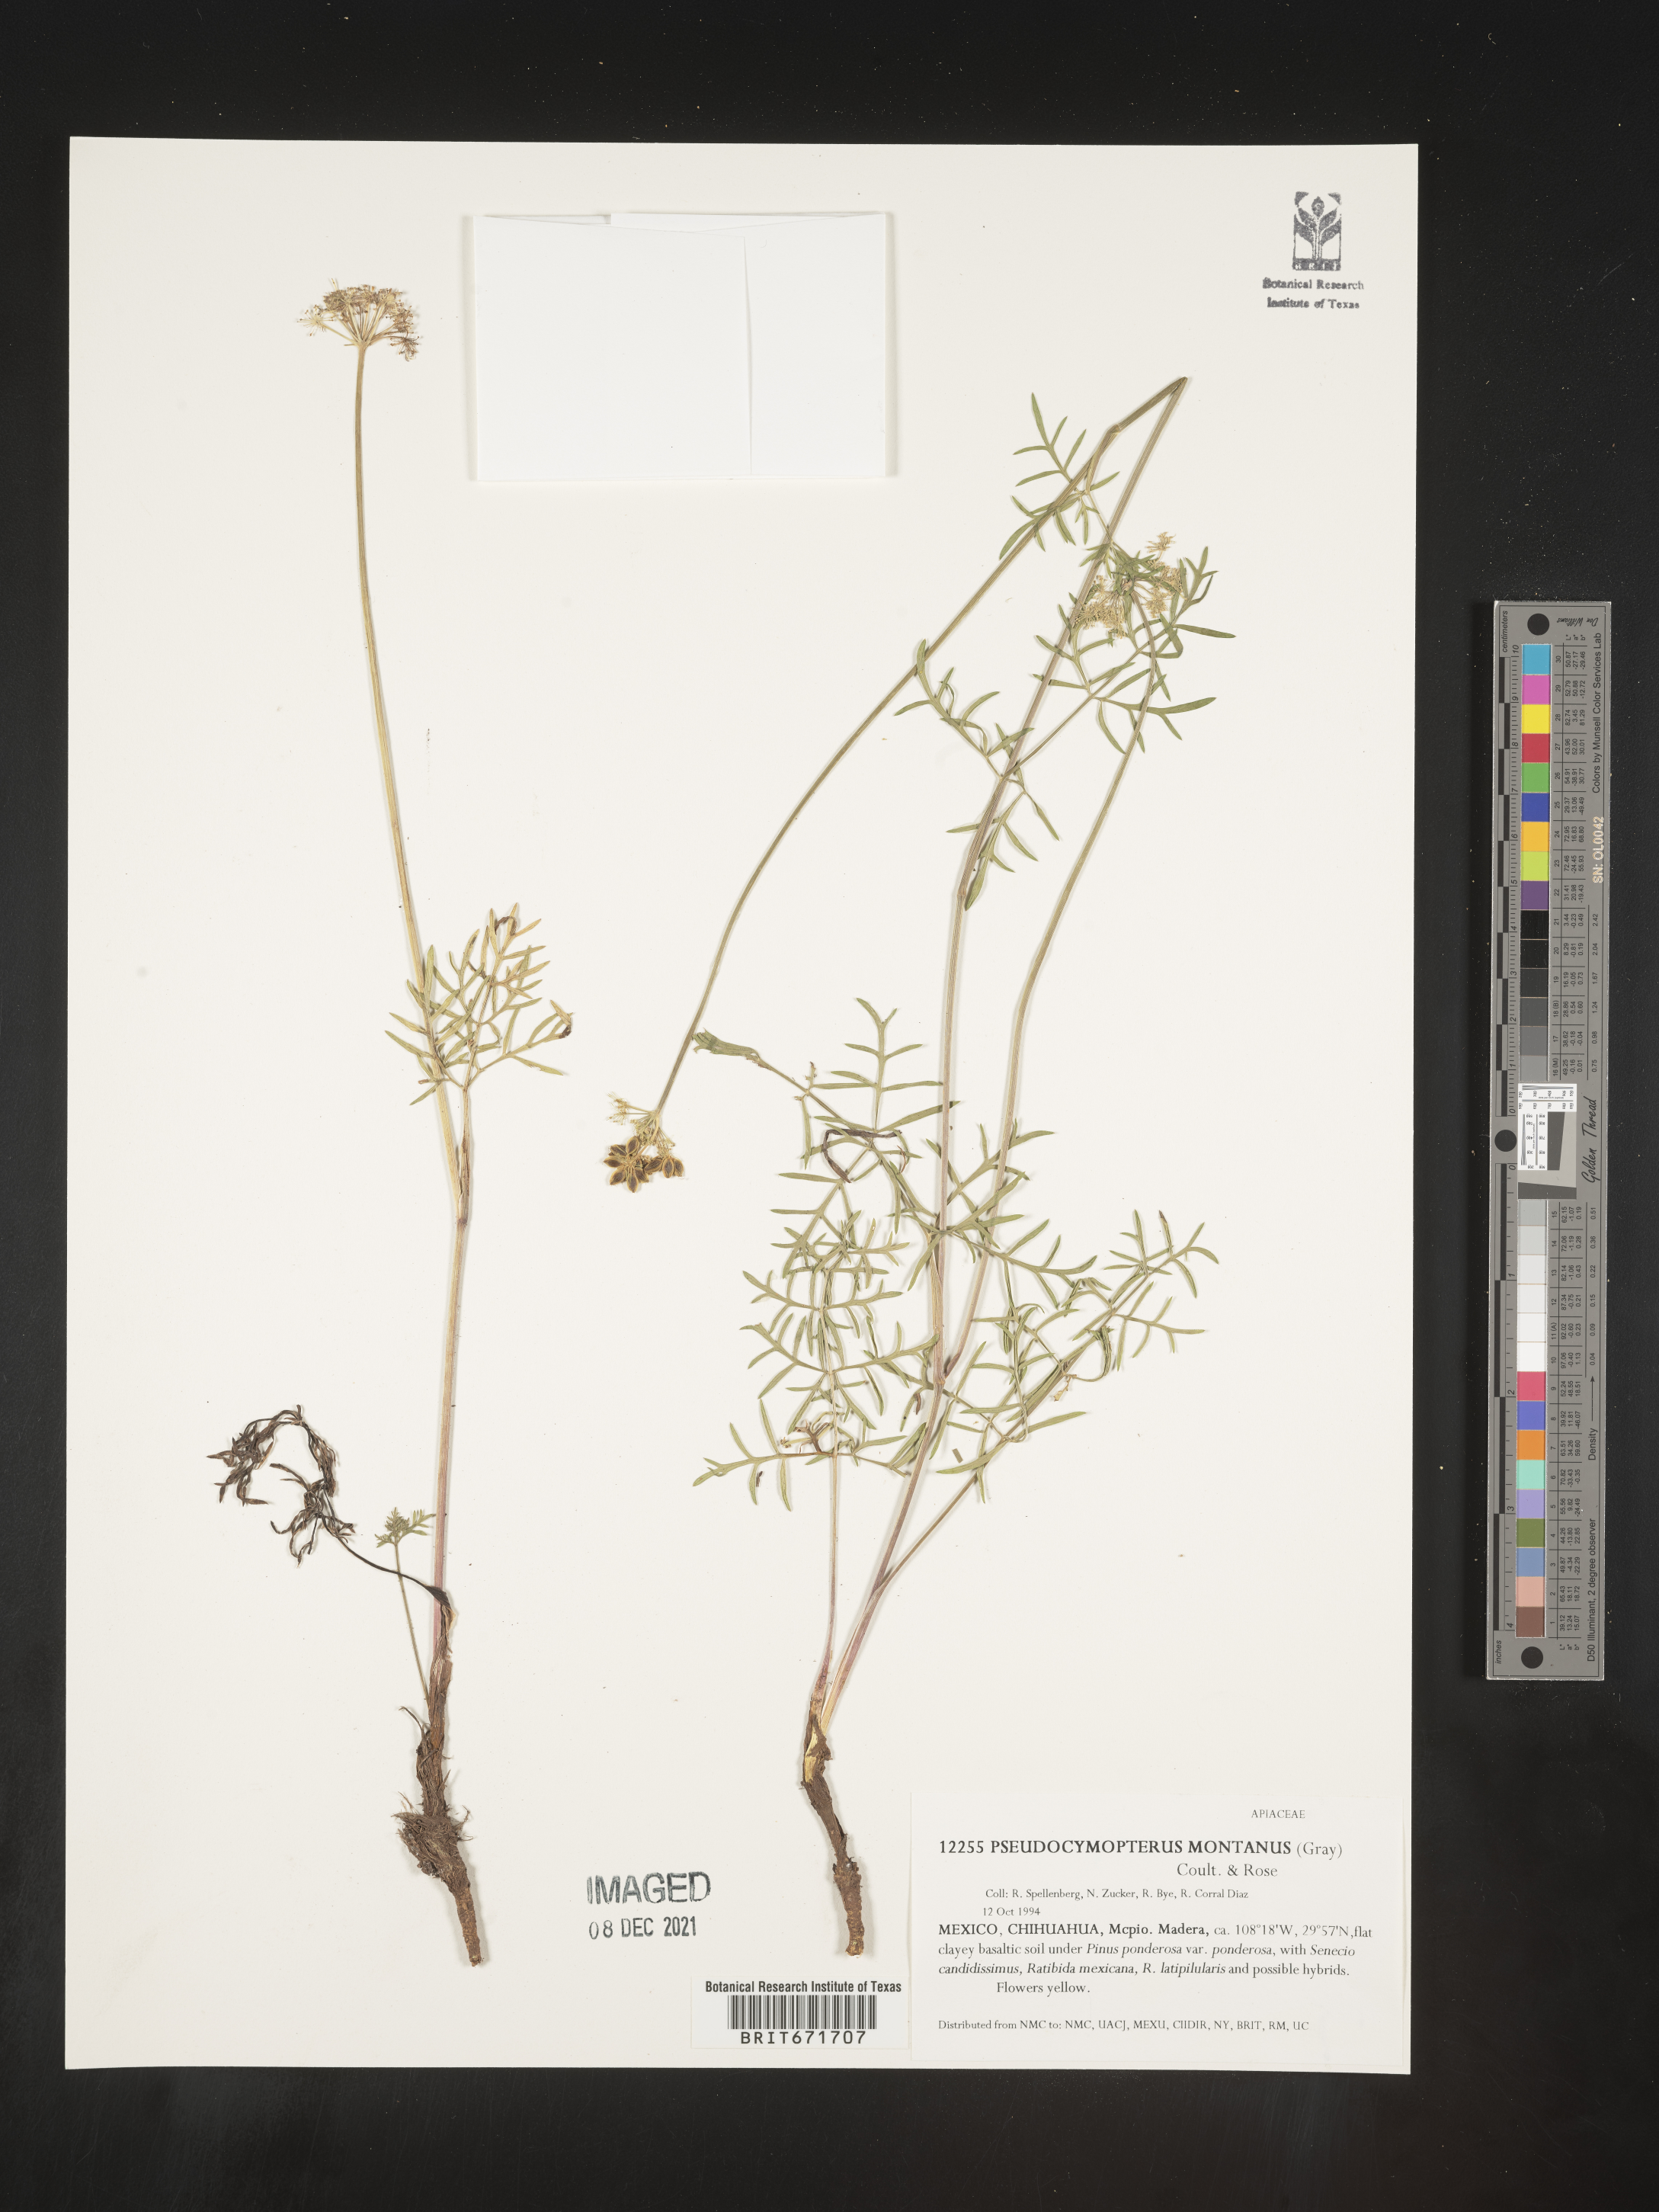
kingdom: Plantae
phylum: Tracheophyta
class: Magnoliopsida
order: Apiales
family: Apiaceae
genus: Cymopterus
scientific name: Cymopterus lemmonii
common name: Lemmon's spring-parsley
